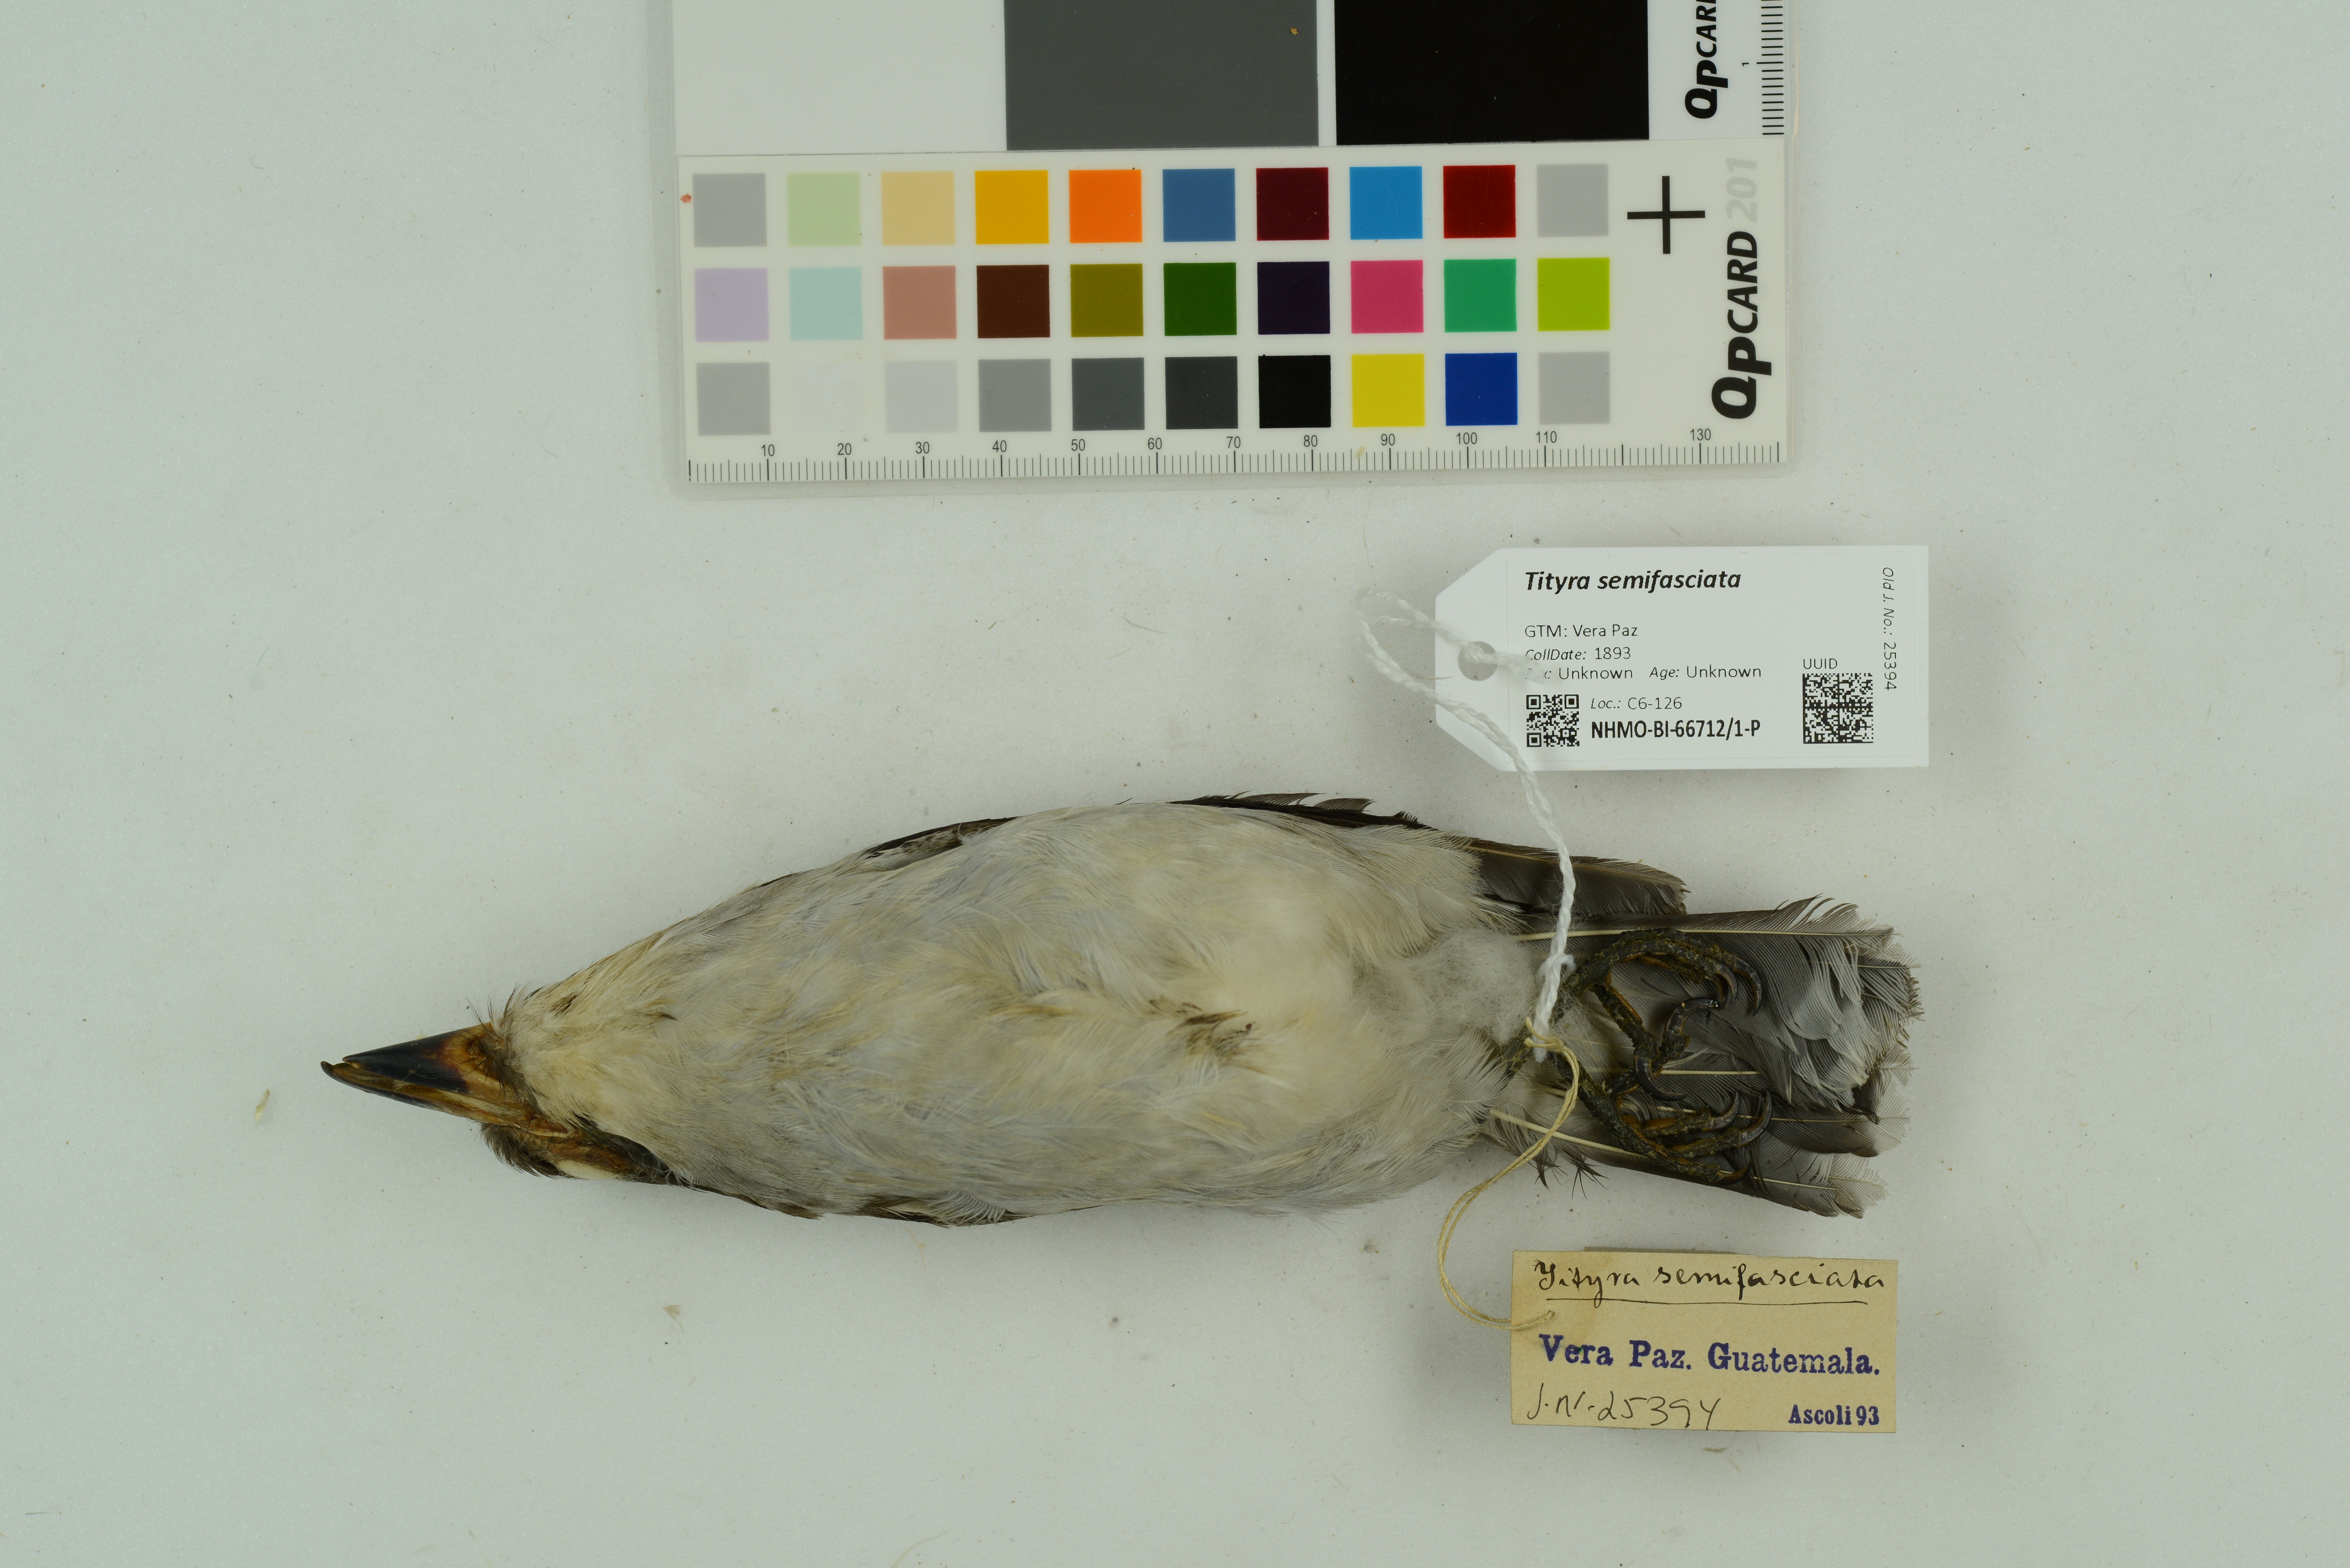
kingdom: Animalia
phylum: Chordata
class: Aves
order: Passeriformes
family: Cotingidae
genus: Tityra
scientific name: Tityra semifasciata
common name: Masked tityra
